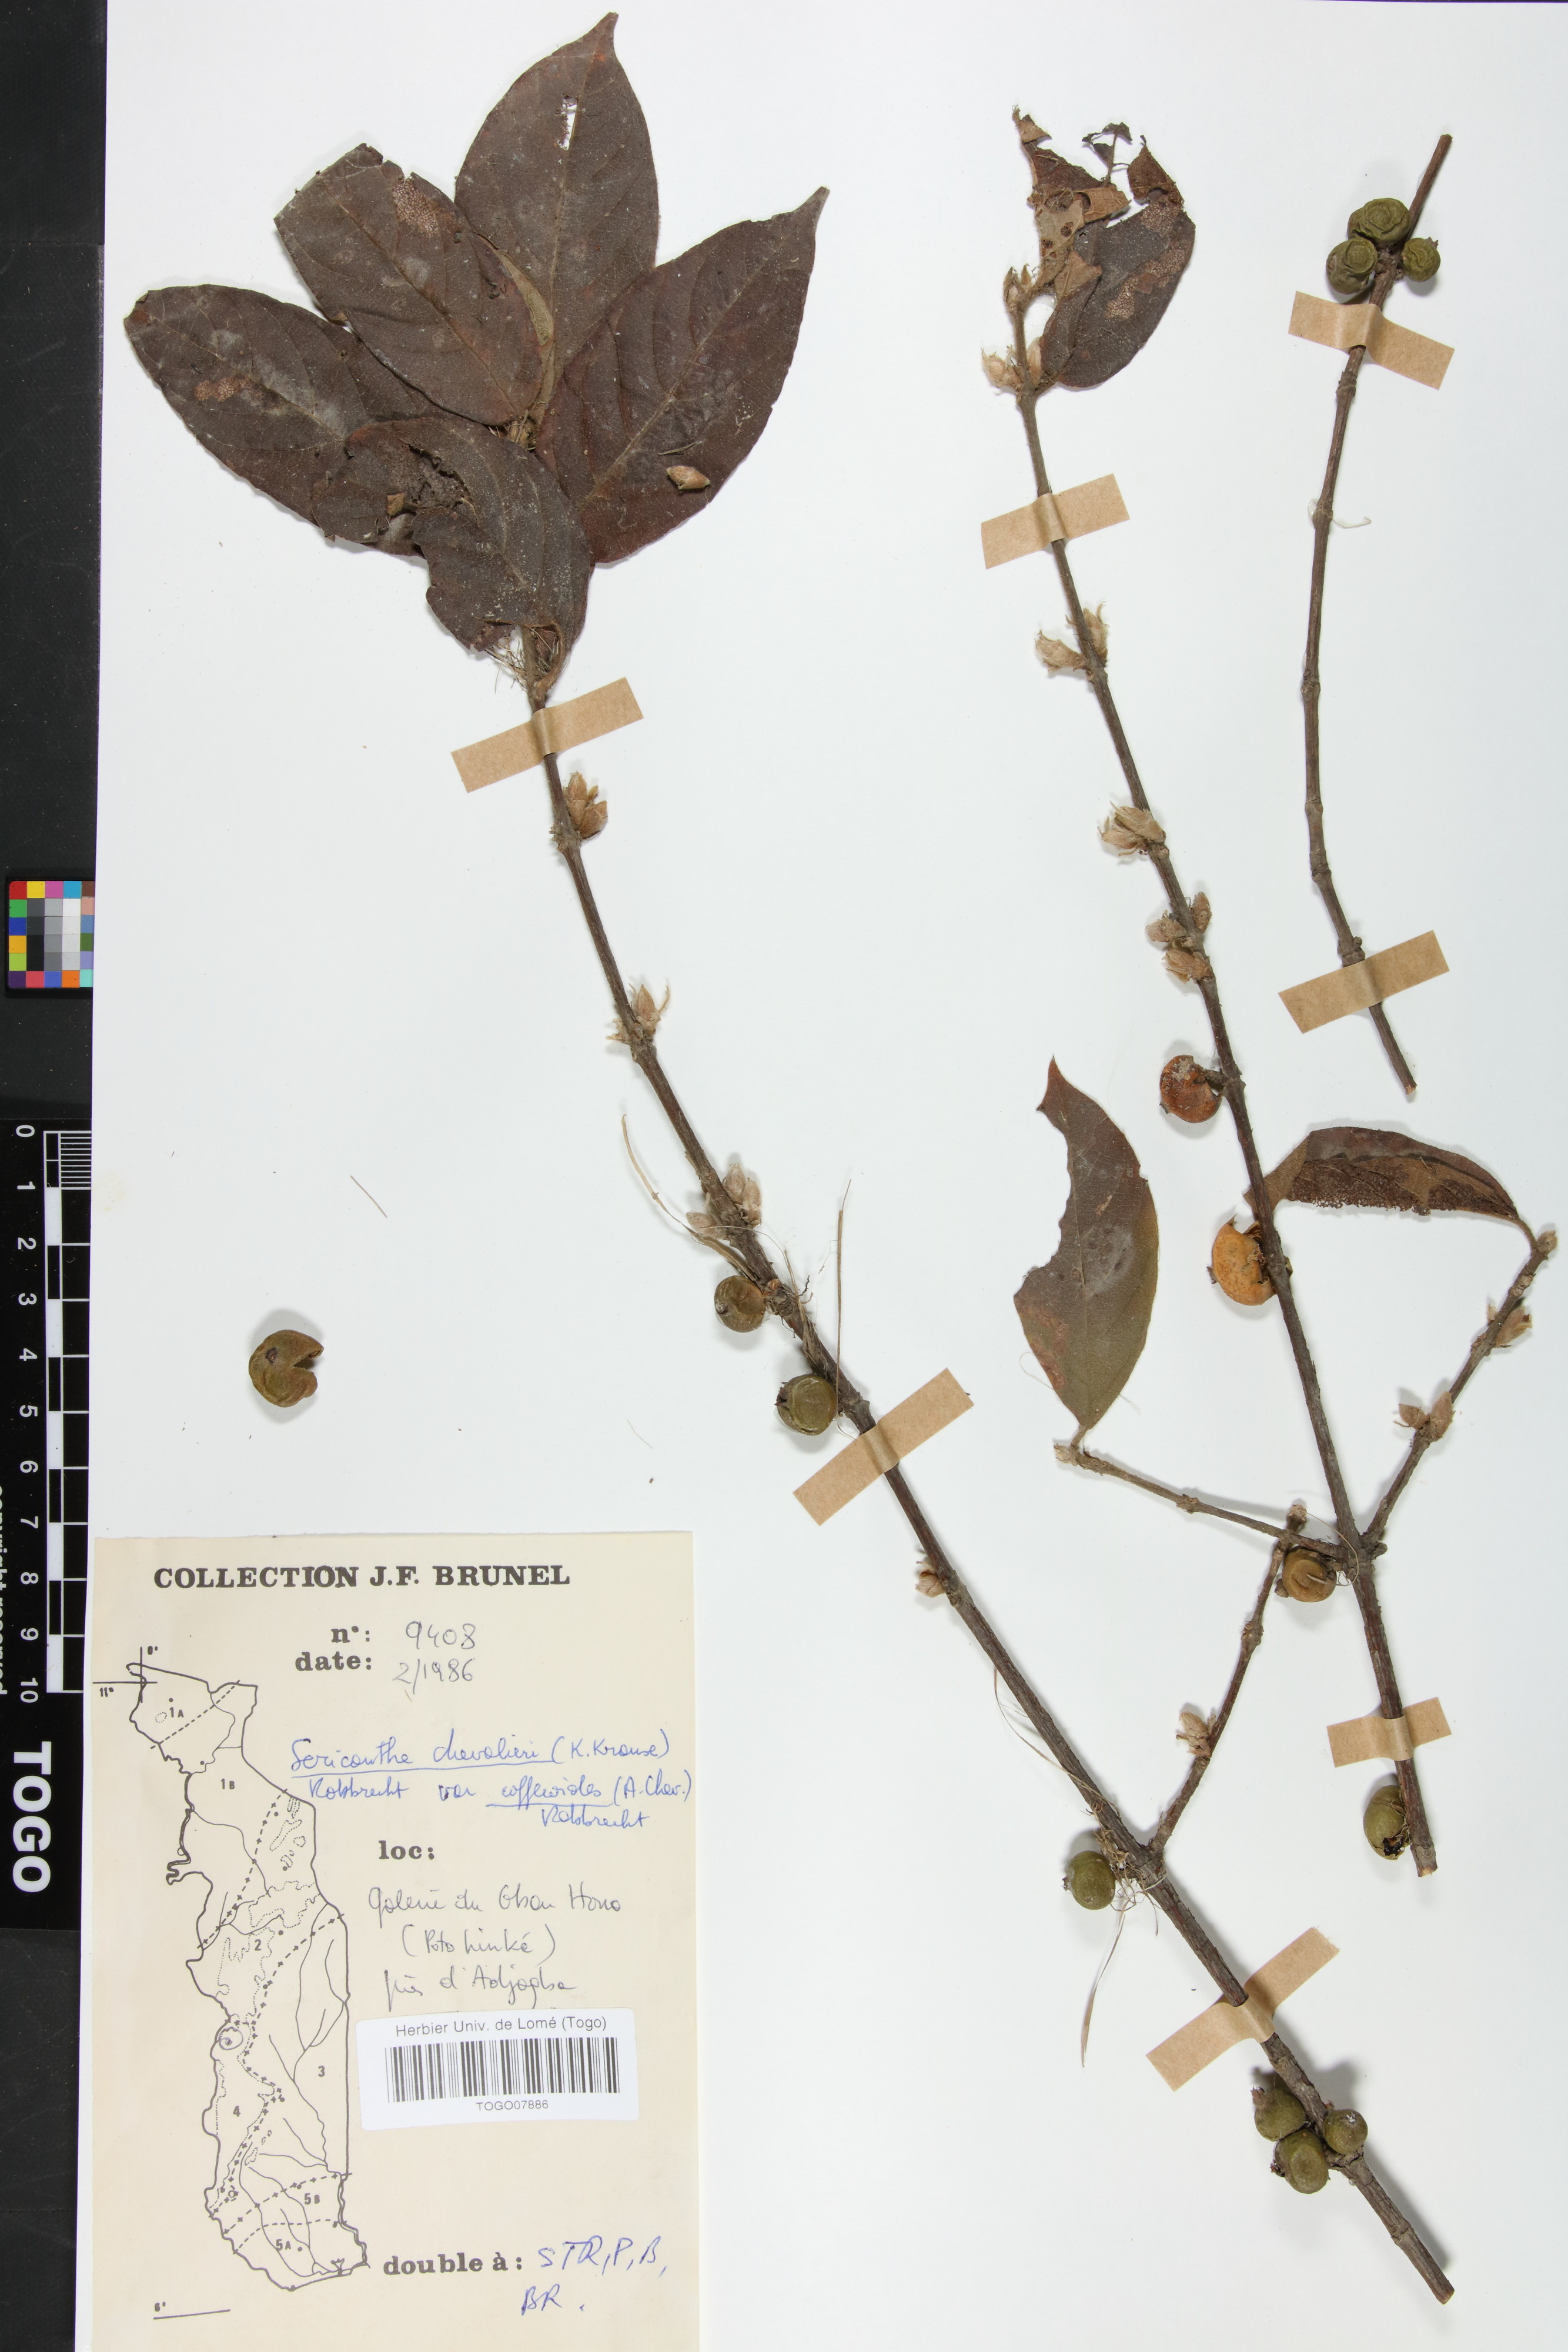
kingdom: Plantae
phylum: Tracheophyta
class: Magnoliopsida
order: Gentianales
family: Rubiaceae
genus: Sericanthe
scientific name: Sericanthe chevalieri
